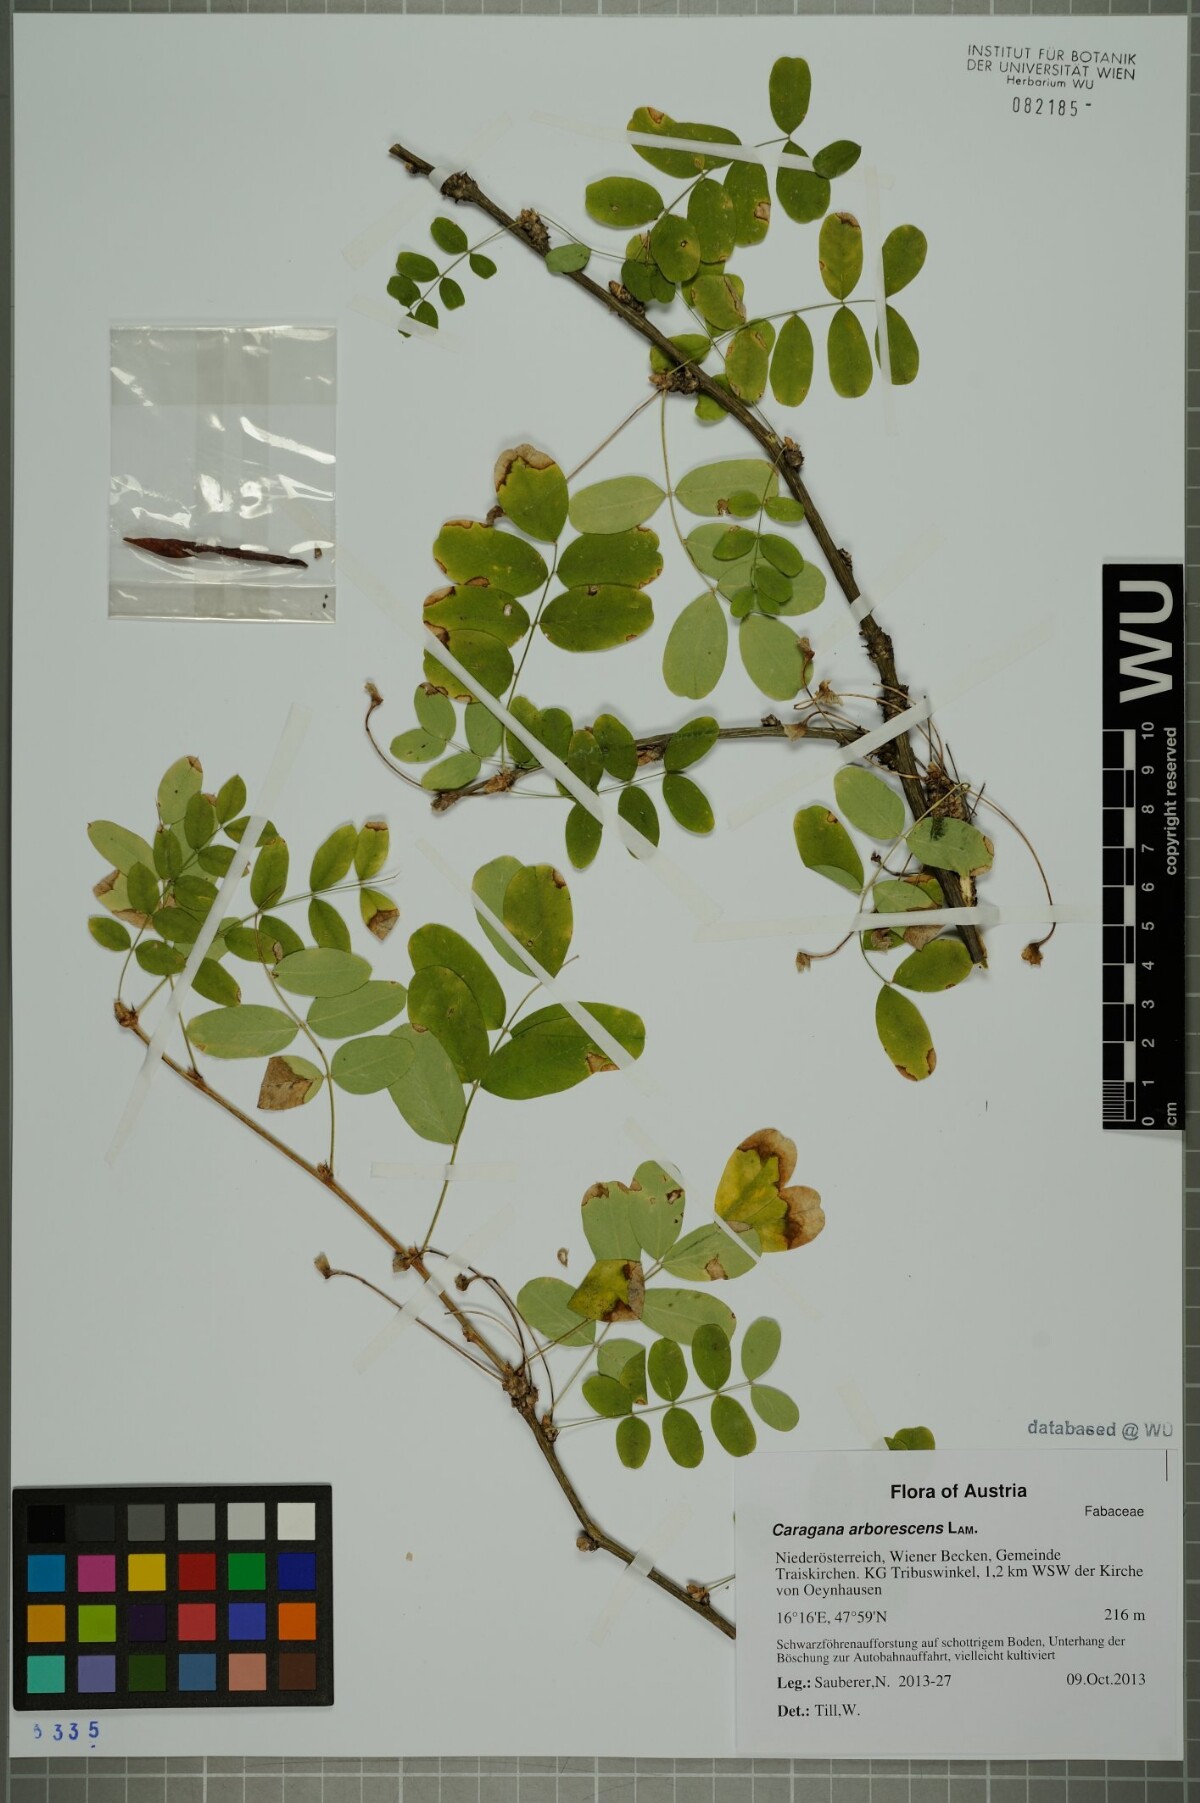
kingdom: Plantae
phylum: Tracheophyta
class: Magnoliopsida
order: Fabales
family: Fabaceae
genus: Caragana
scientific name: Caragana arborescens
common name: Siberian peashrub
